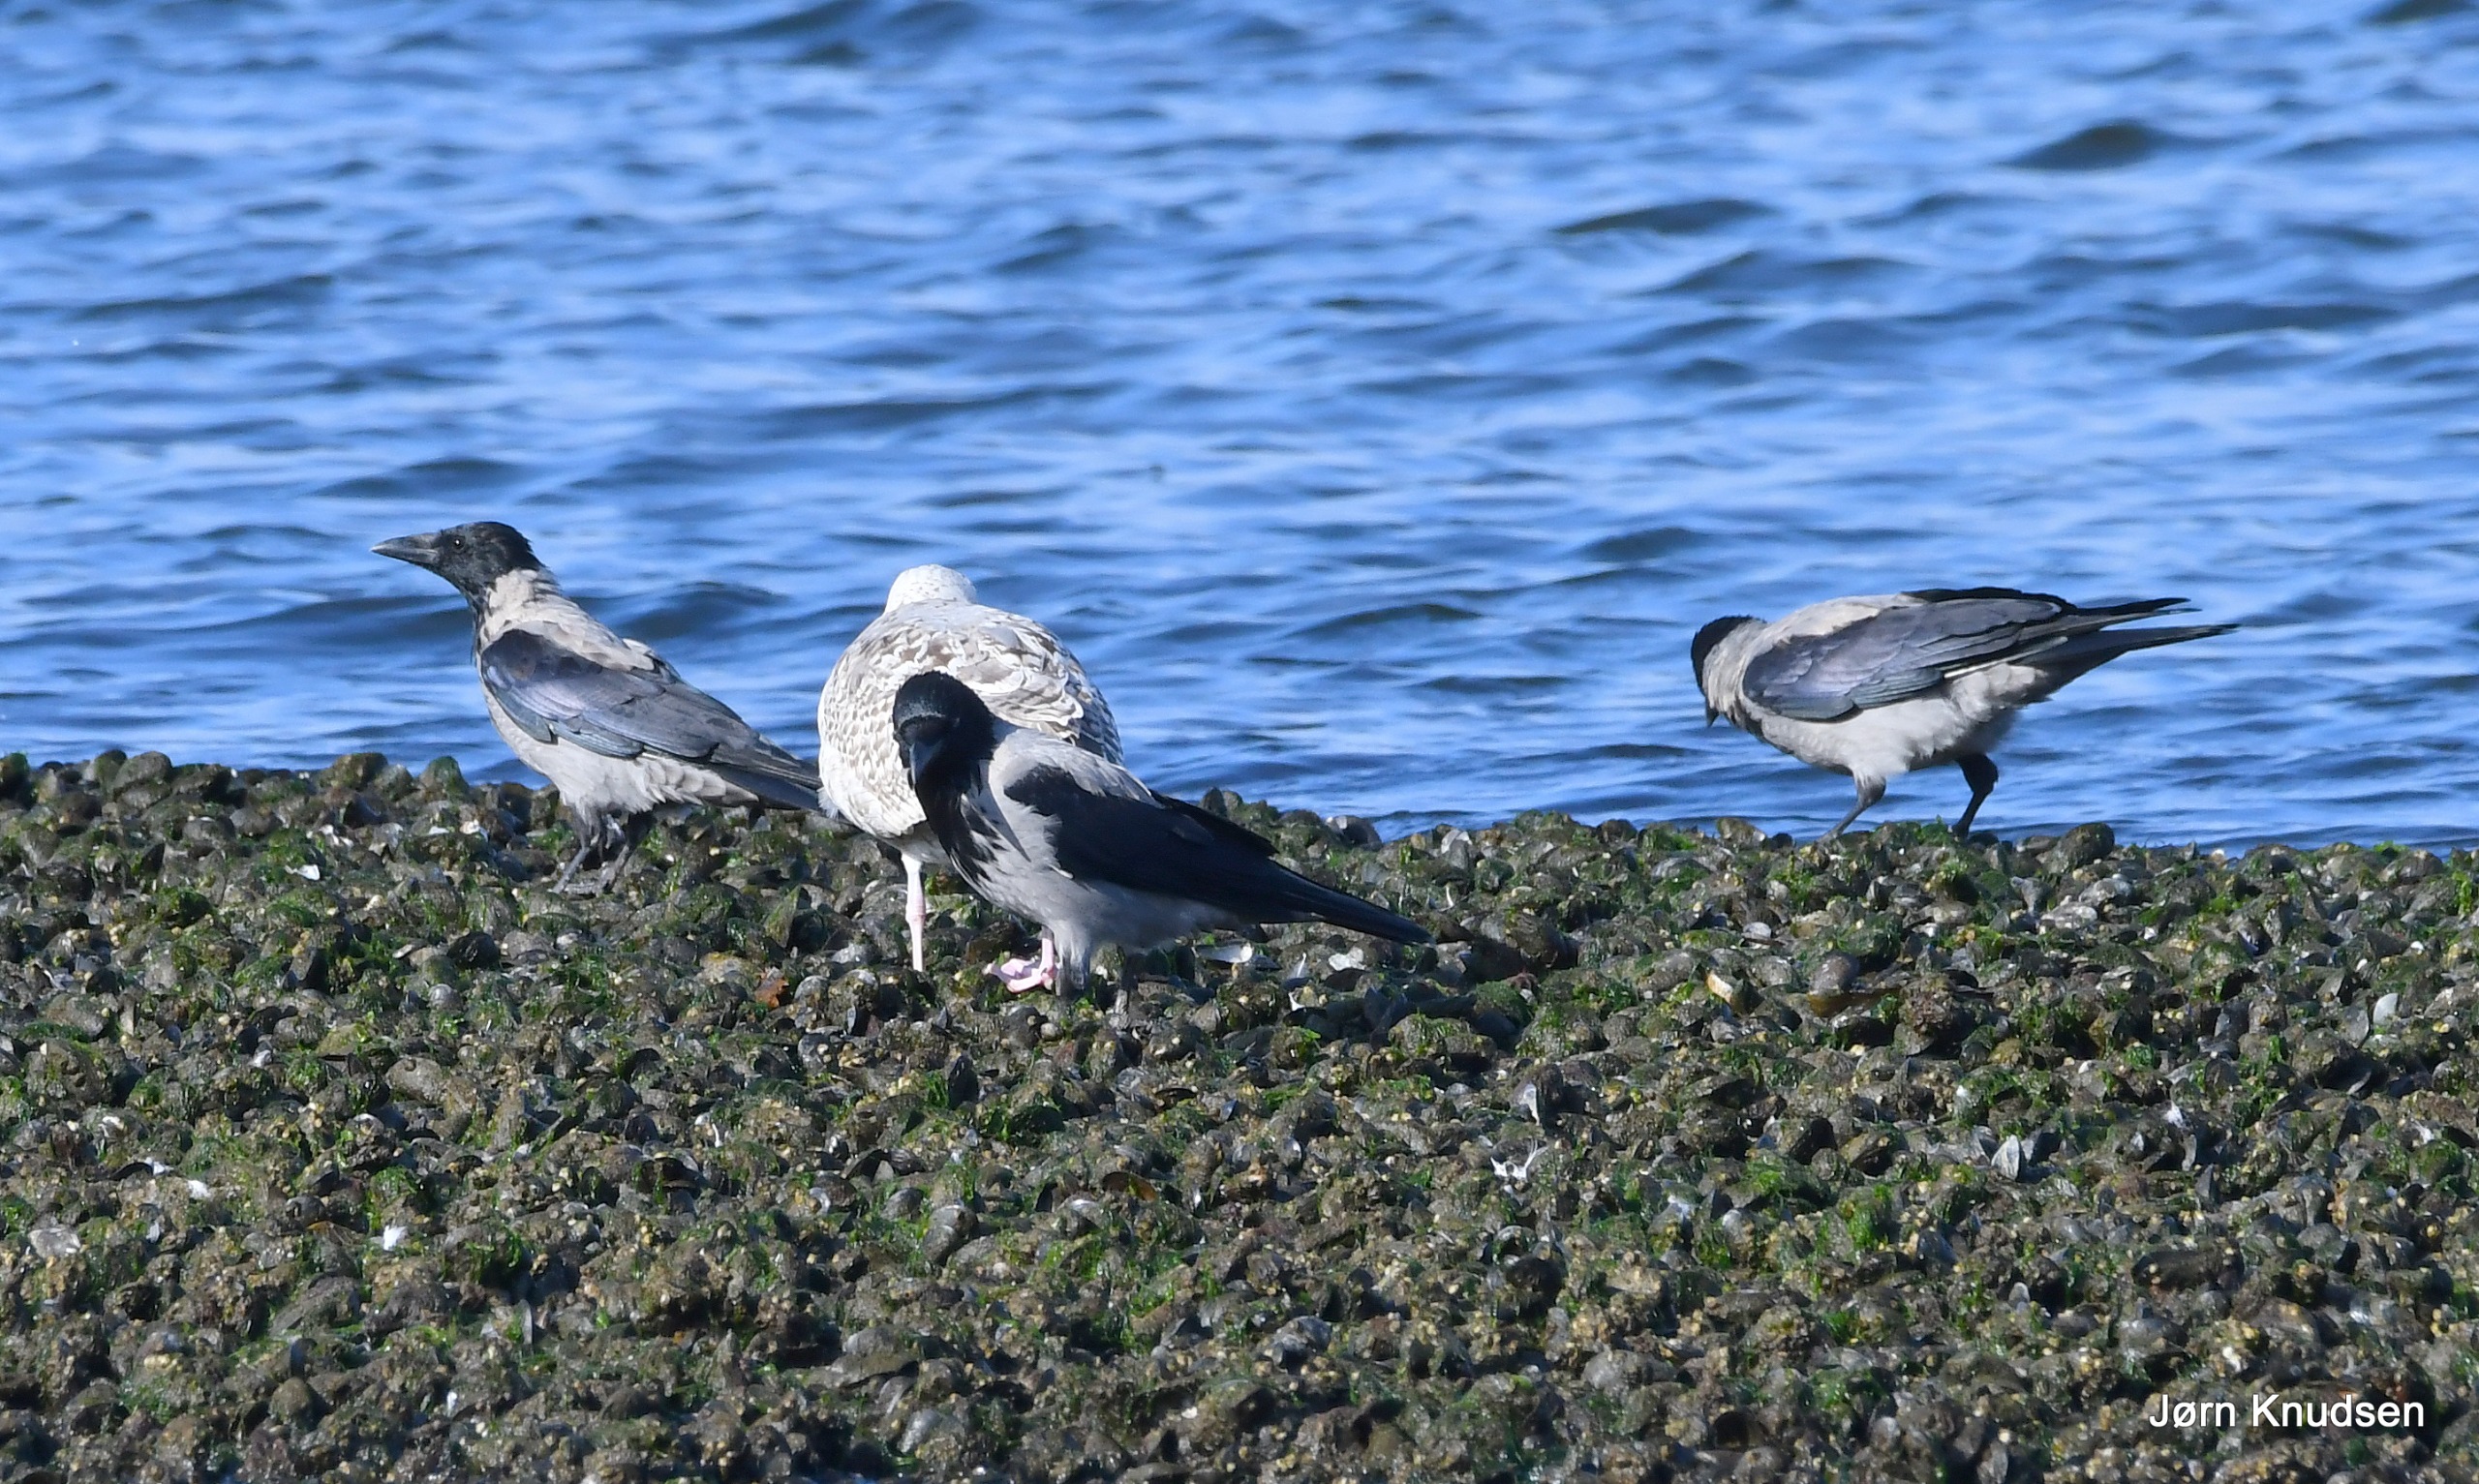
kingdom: Animalia
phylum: Chordata
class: Aves
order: Passeriformes
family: Corvidae
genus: Corvus
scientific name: Corvus cornix
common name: Gråkrage
